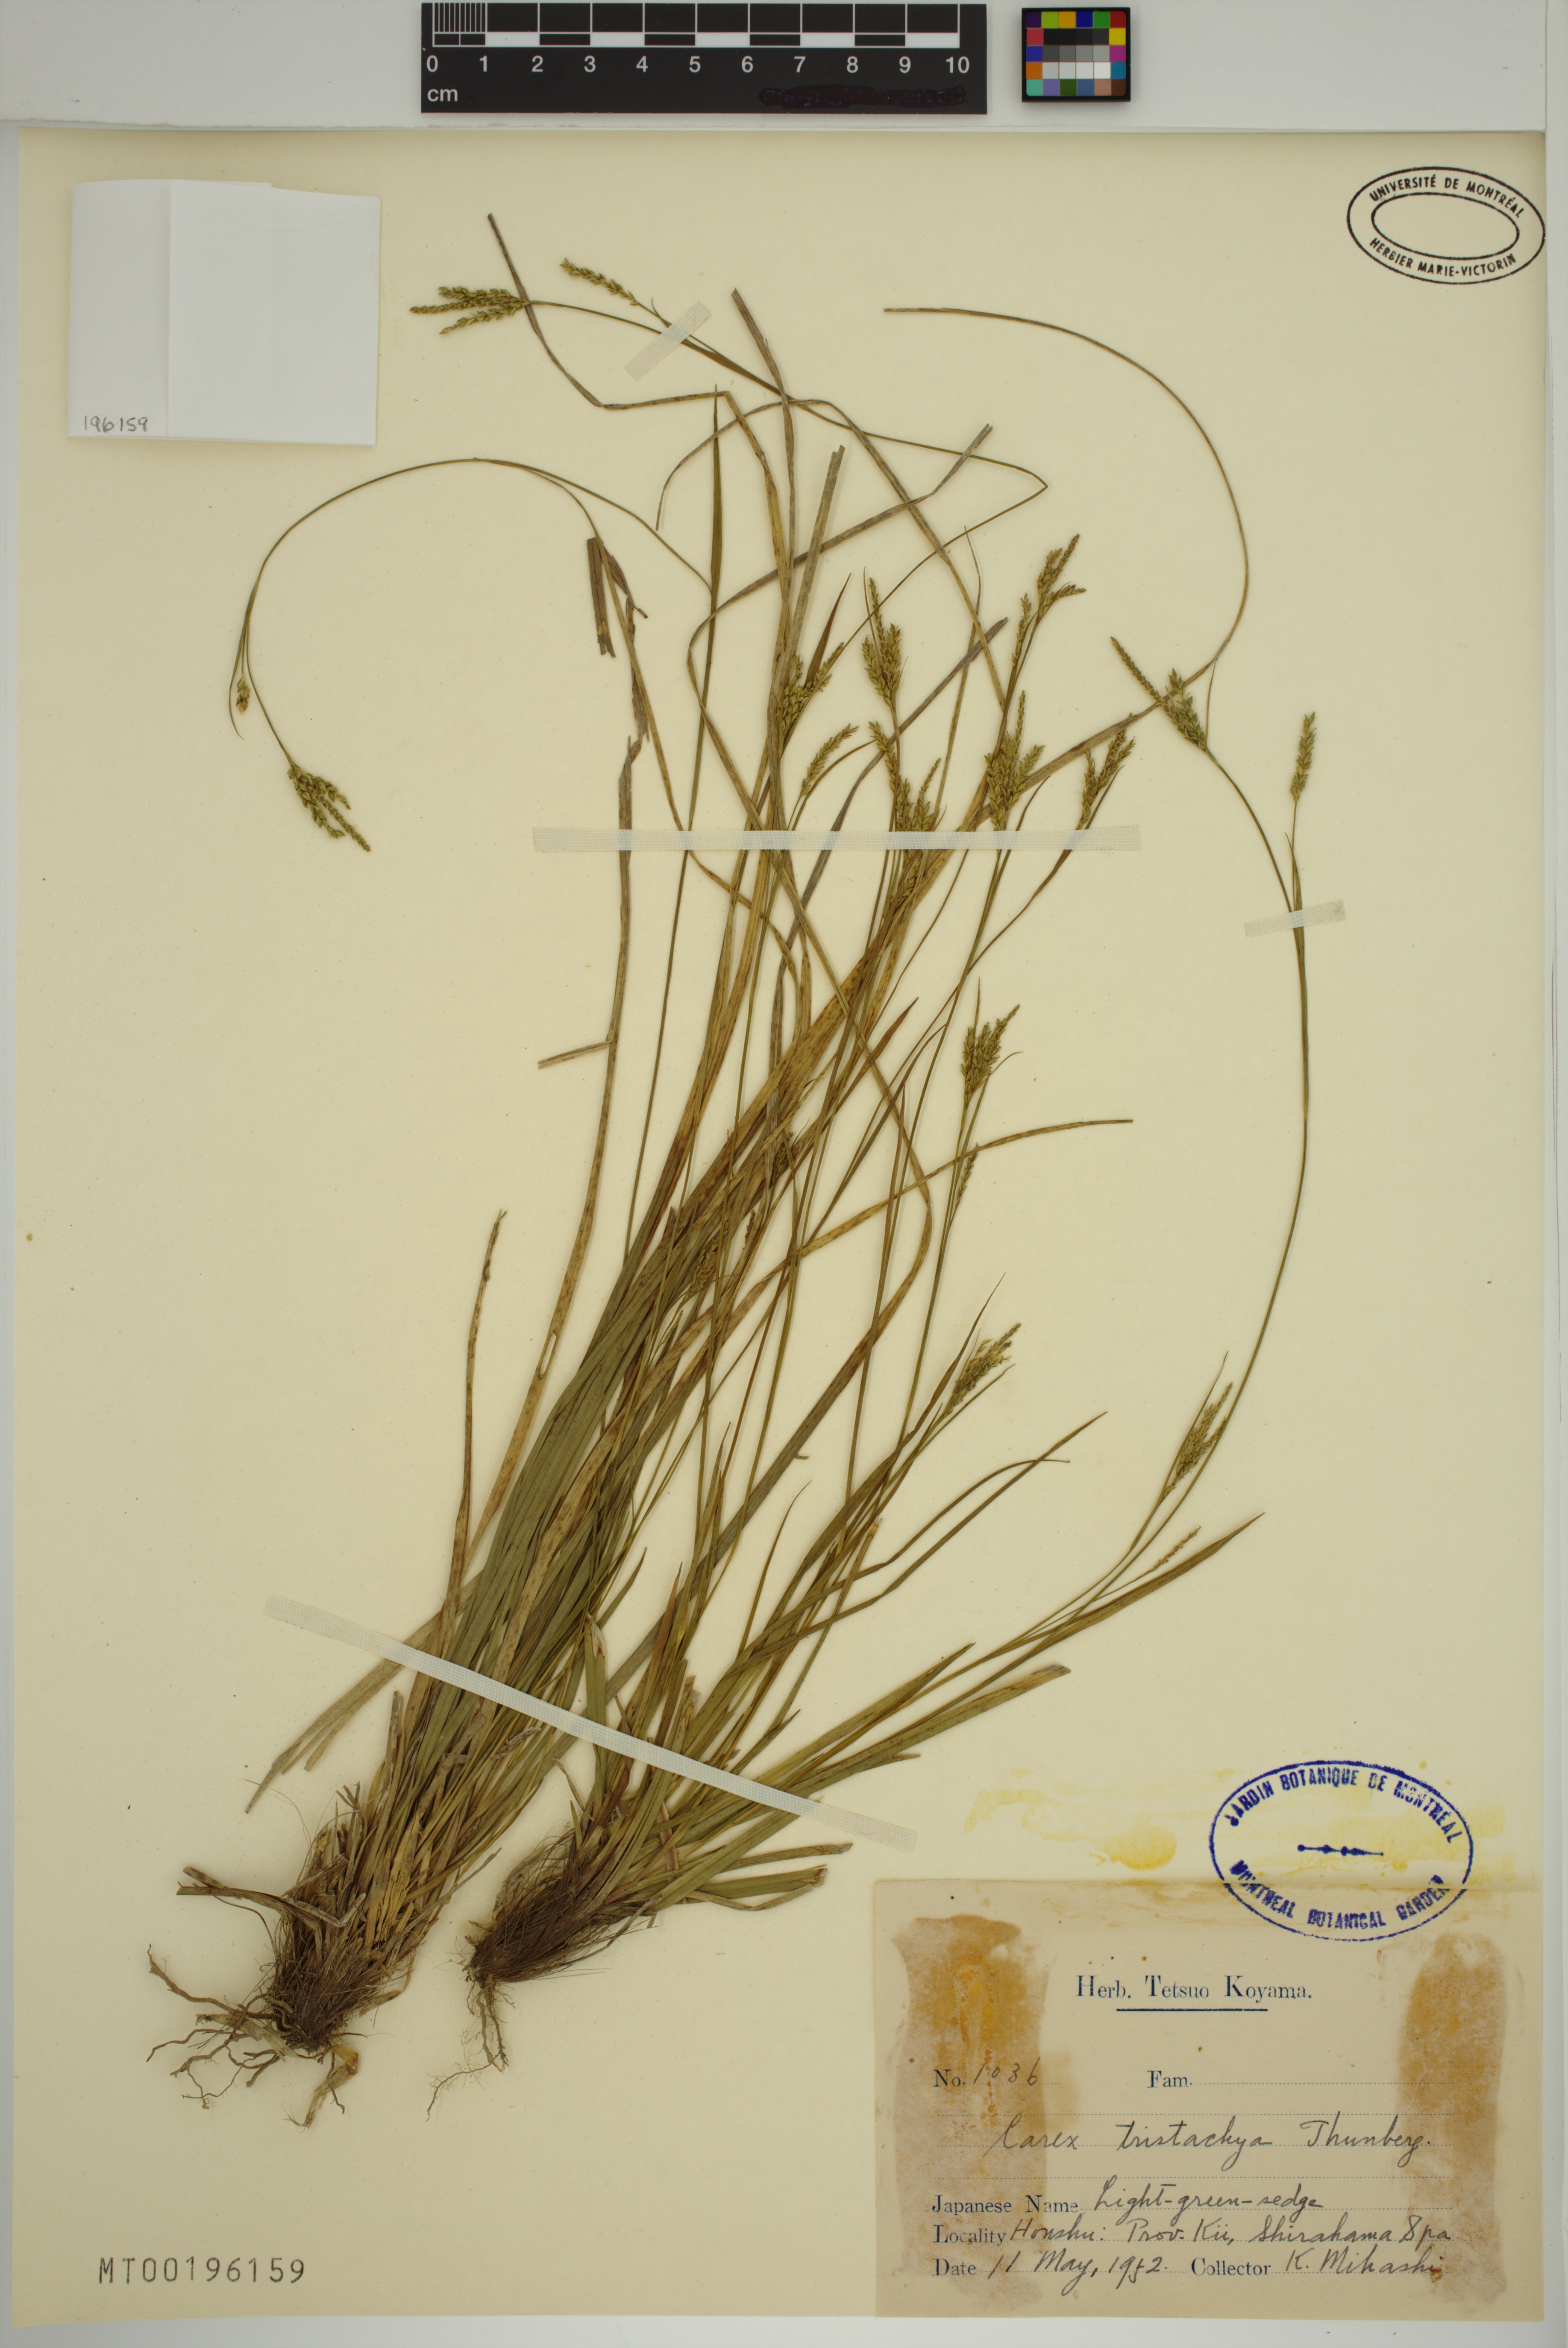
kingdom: Plantae
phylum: Tracheophyta
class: Liliopsida
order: Poales
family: Cyperaceae
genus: Carex
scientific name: Carex tristachya
